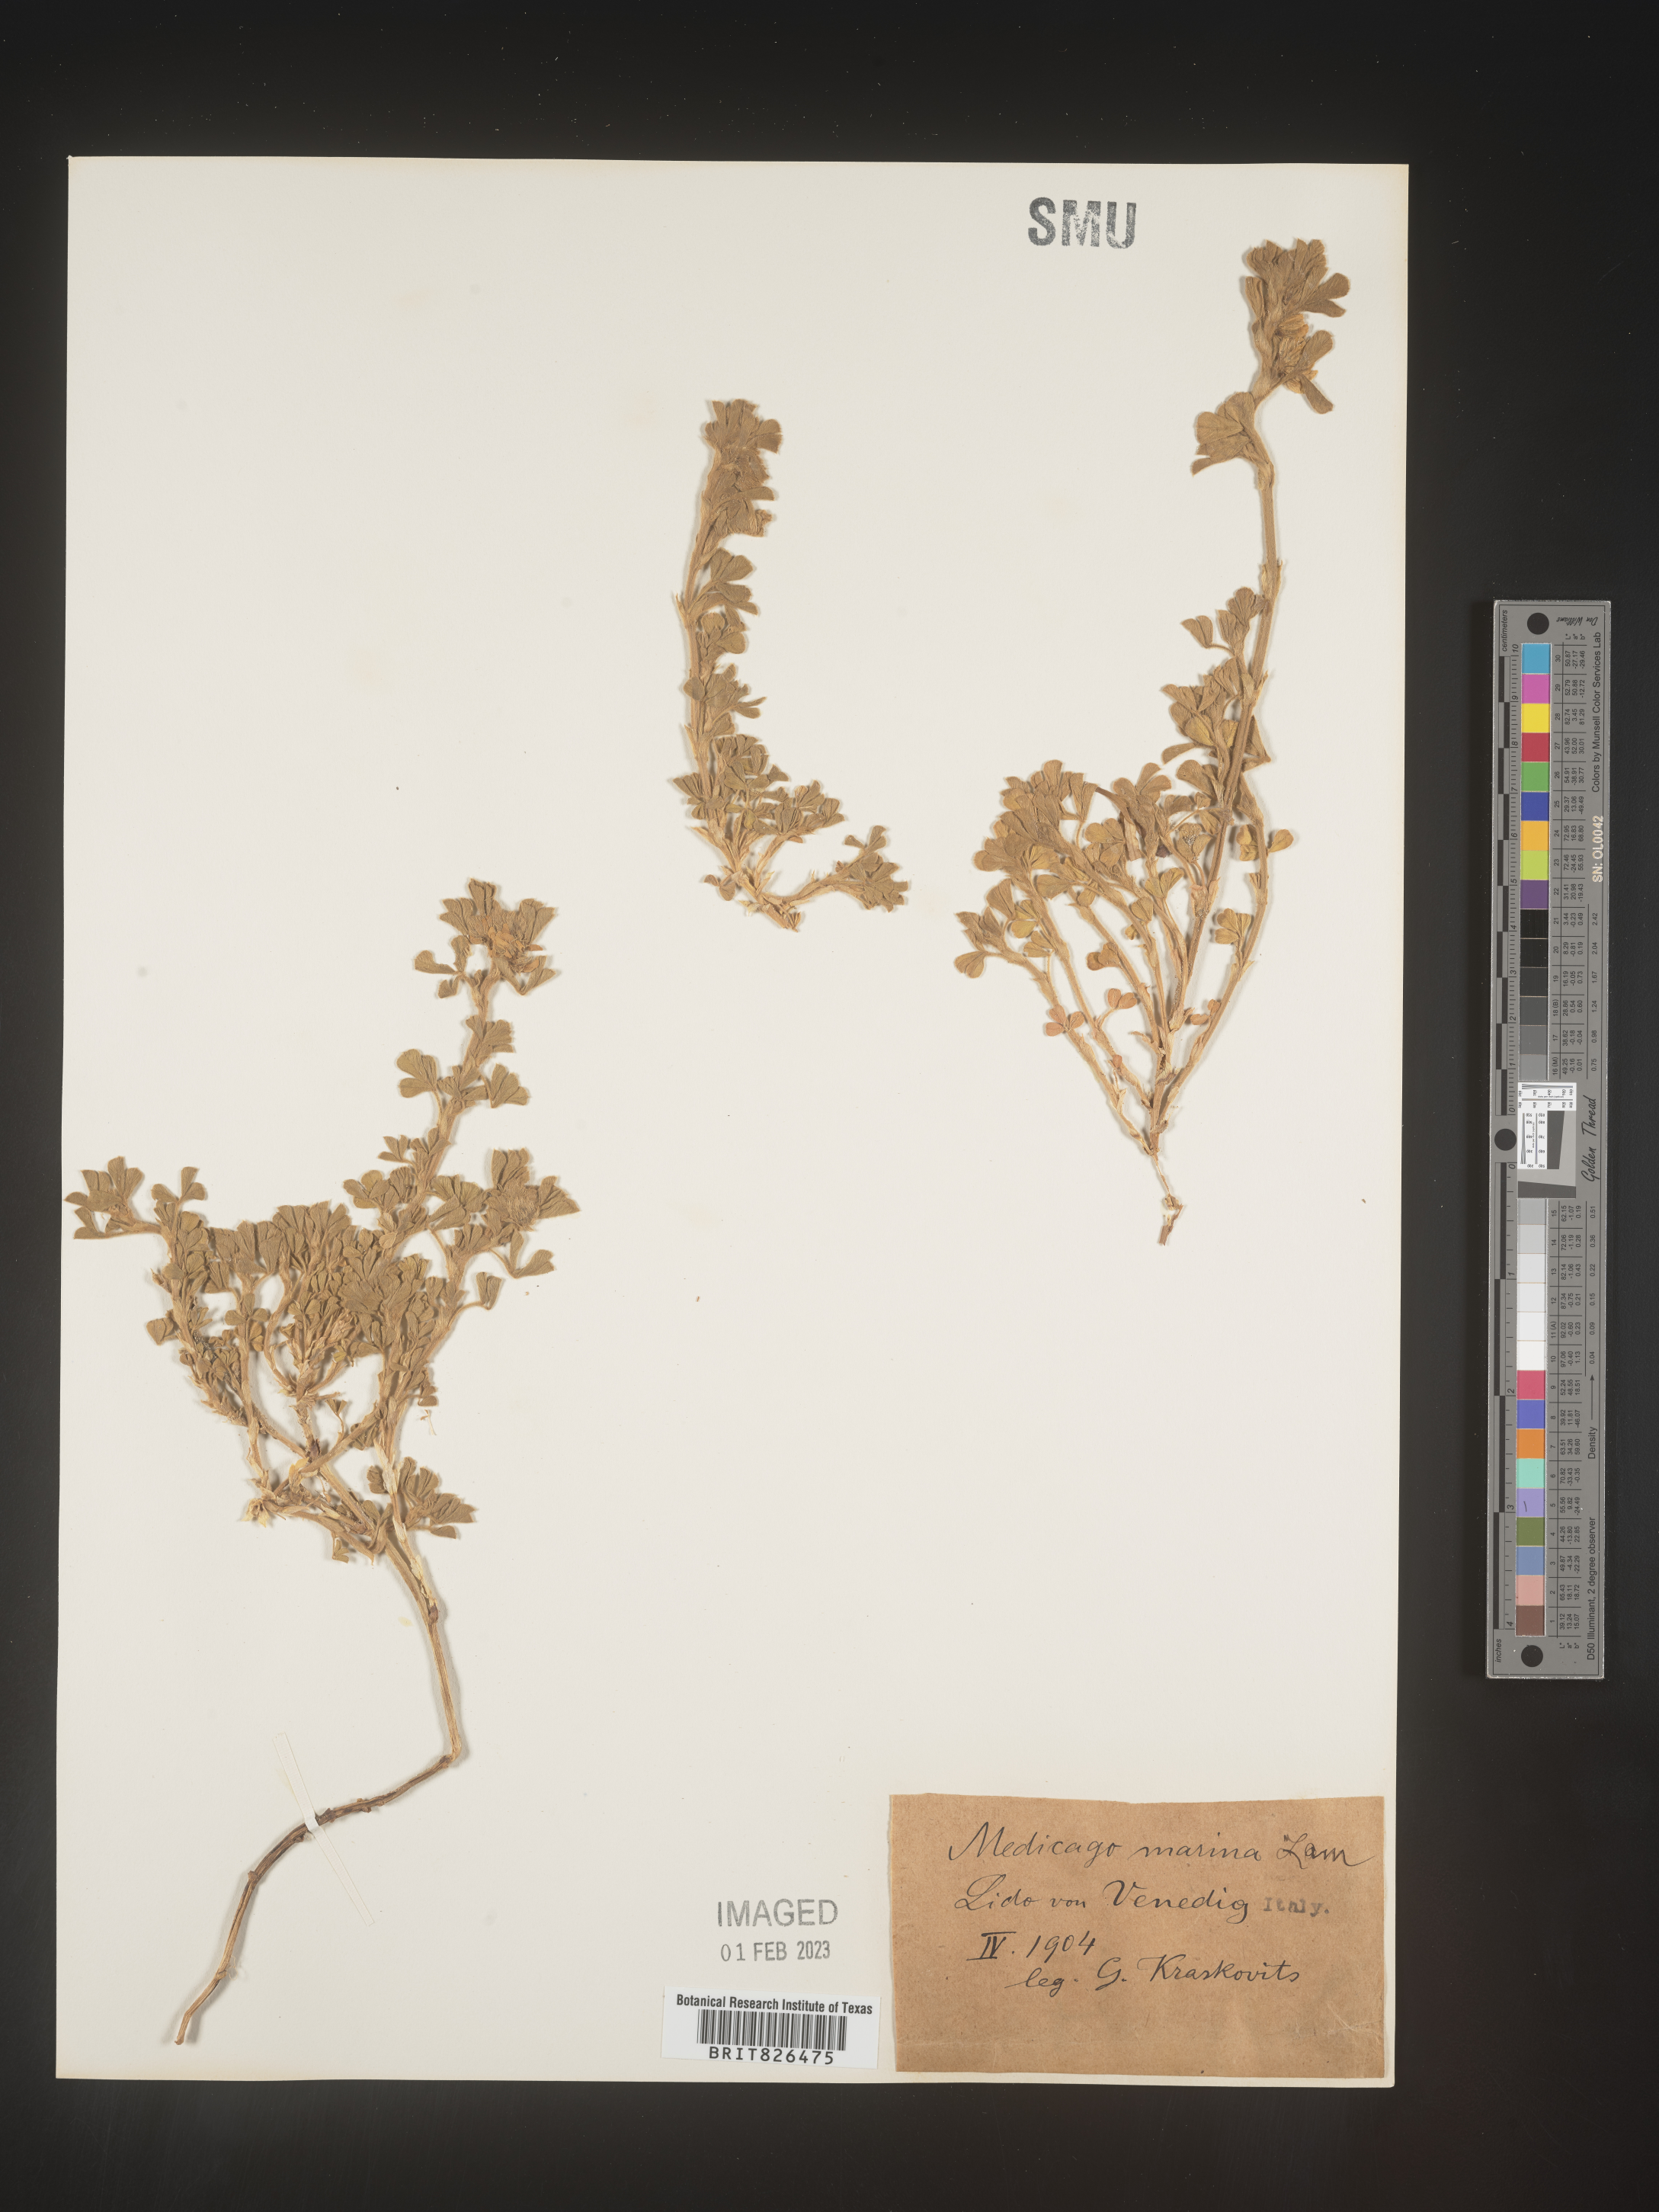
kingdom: Plantae
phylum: Tracheophyta
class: Magnoliopsida
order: Fabales
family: Fabaceae
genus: Medicago
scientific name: Medicago
